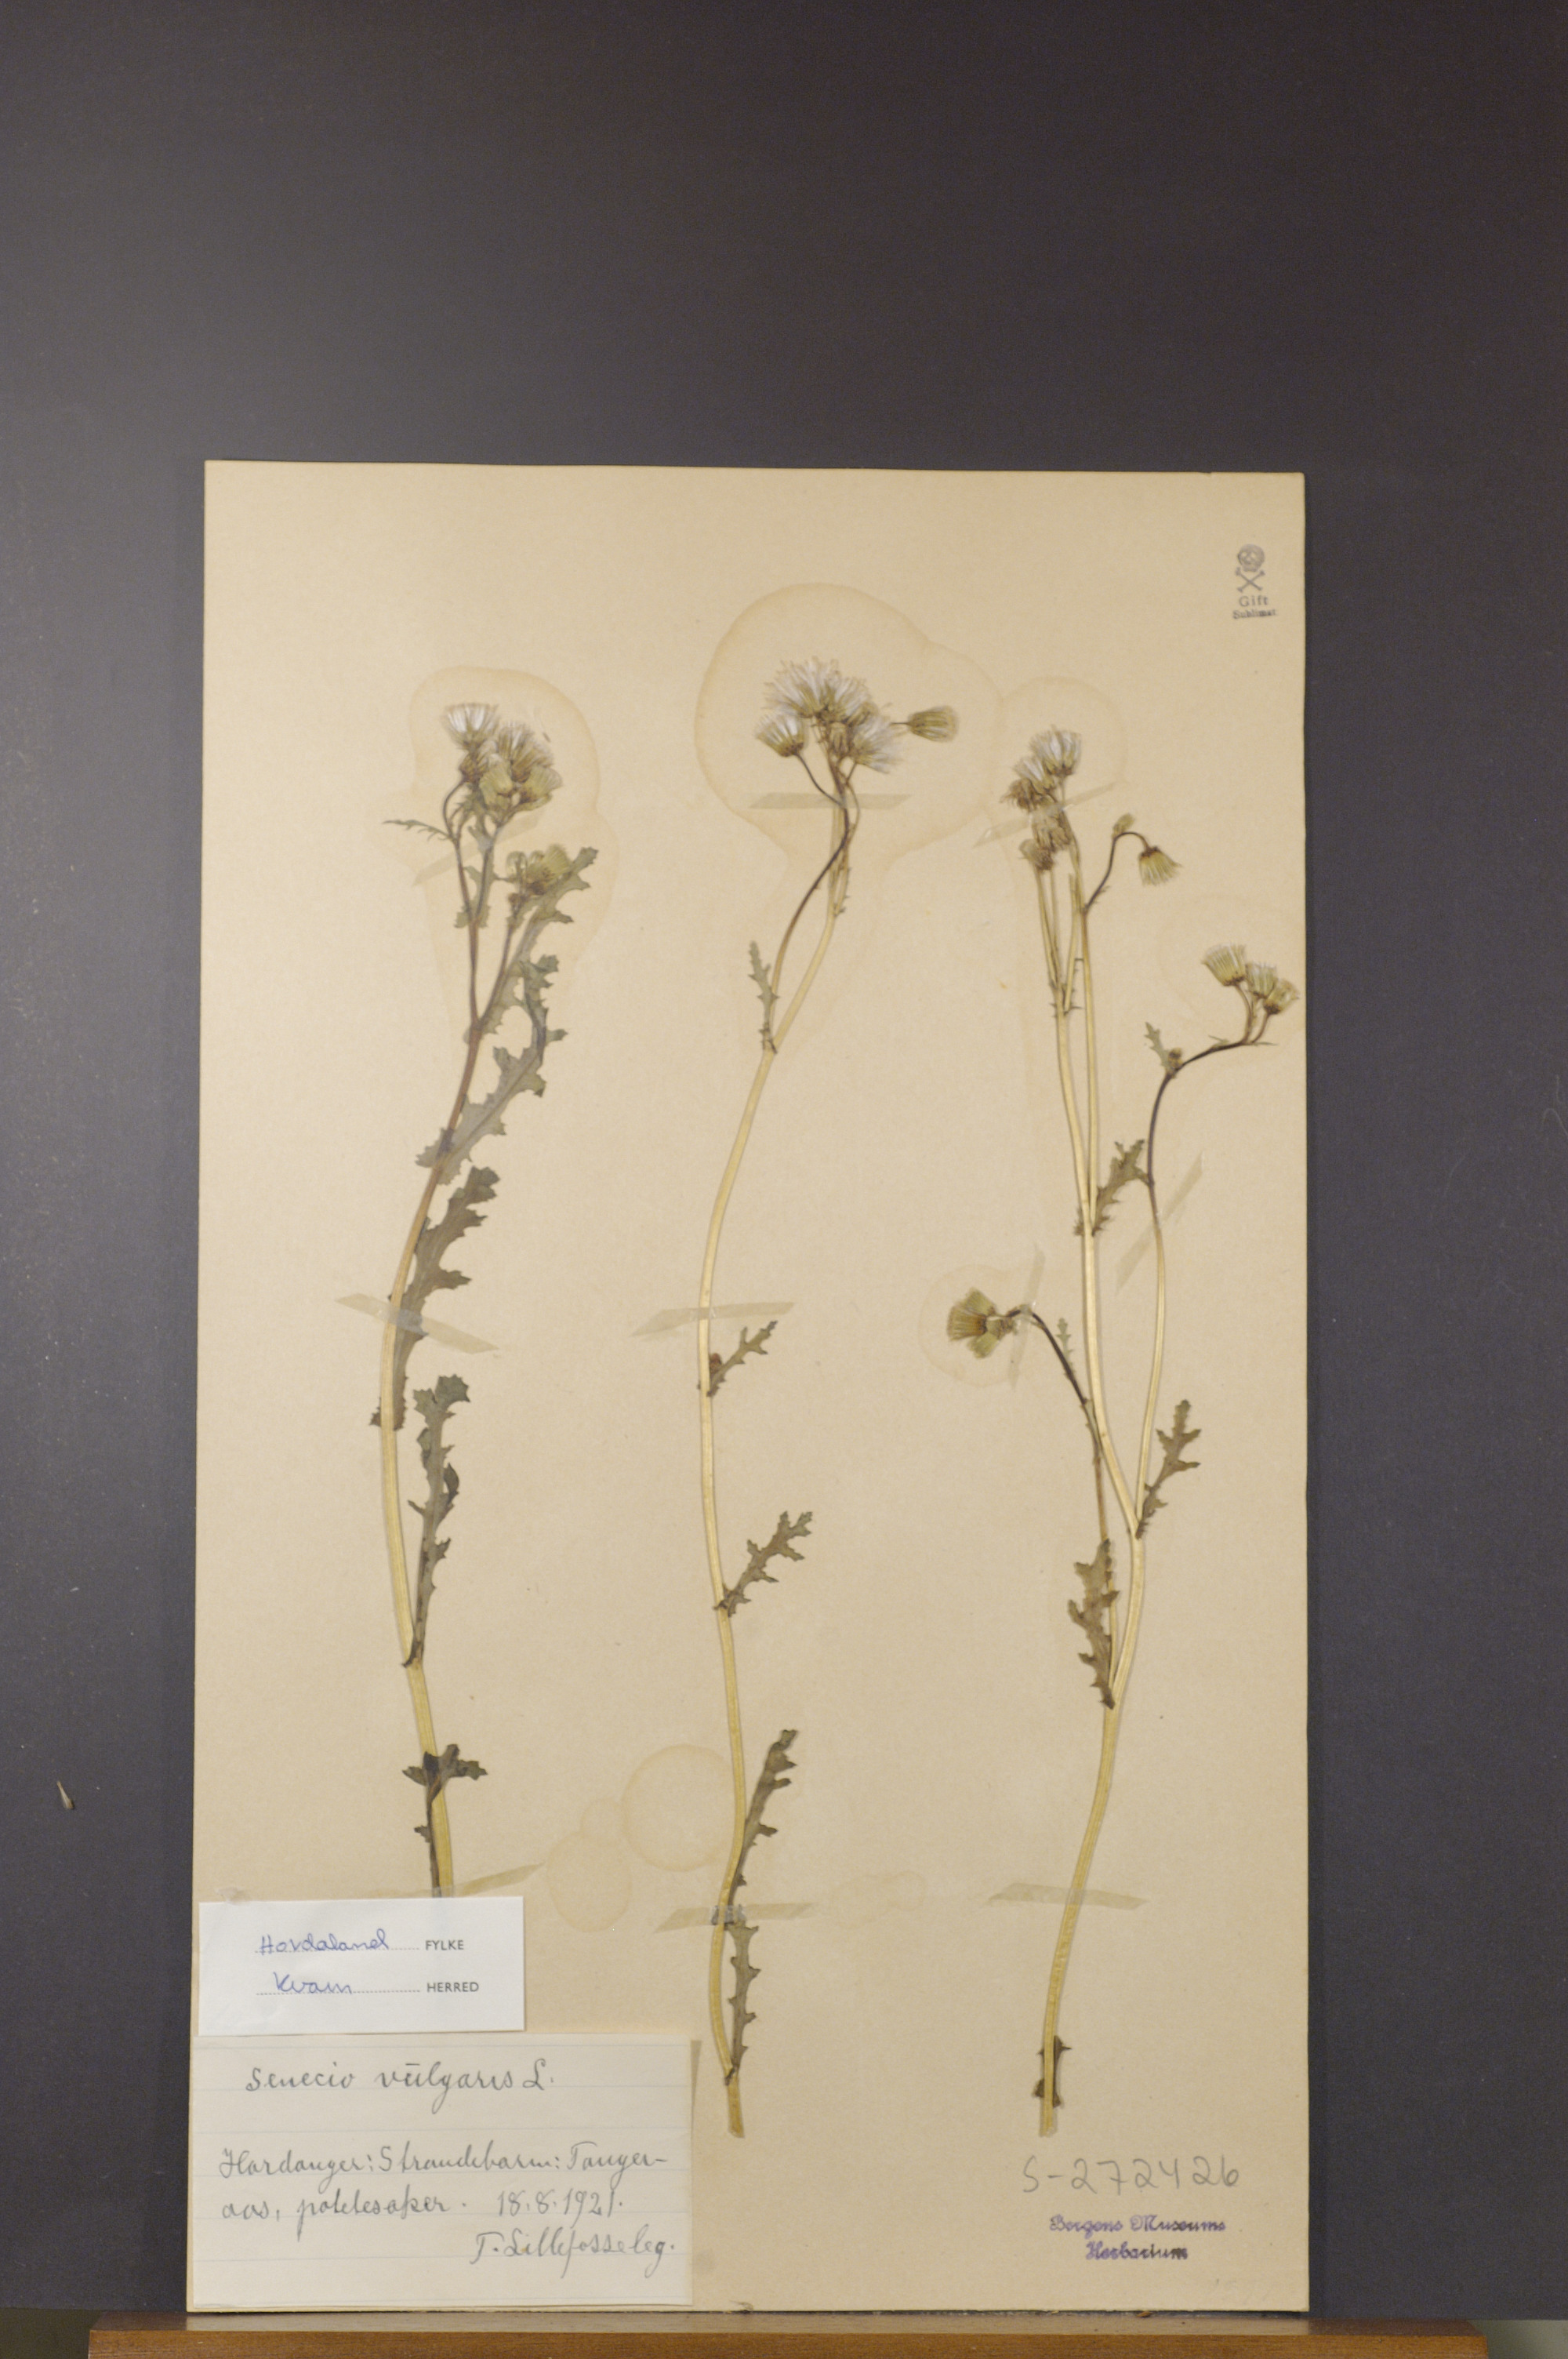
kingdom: Plantae
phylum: Tracheophyta
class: Magnoliopsida
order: Asterales
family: Asteraceae
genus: Senecio
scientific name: Senecio vulgaris
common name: Old-man-in-the-spring
